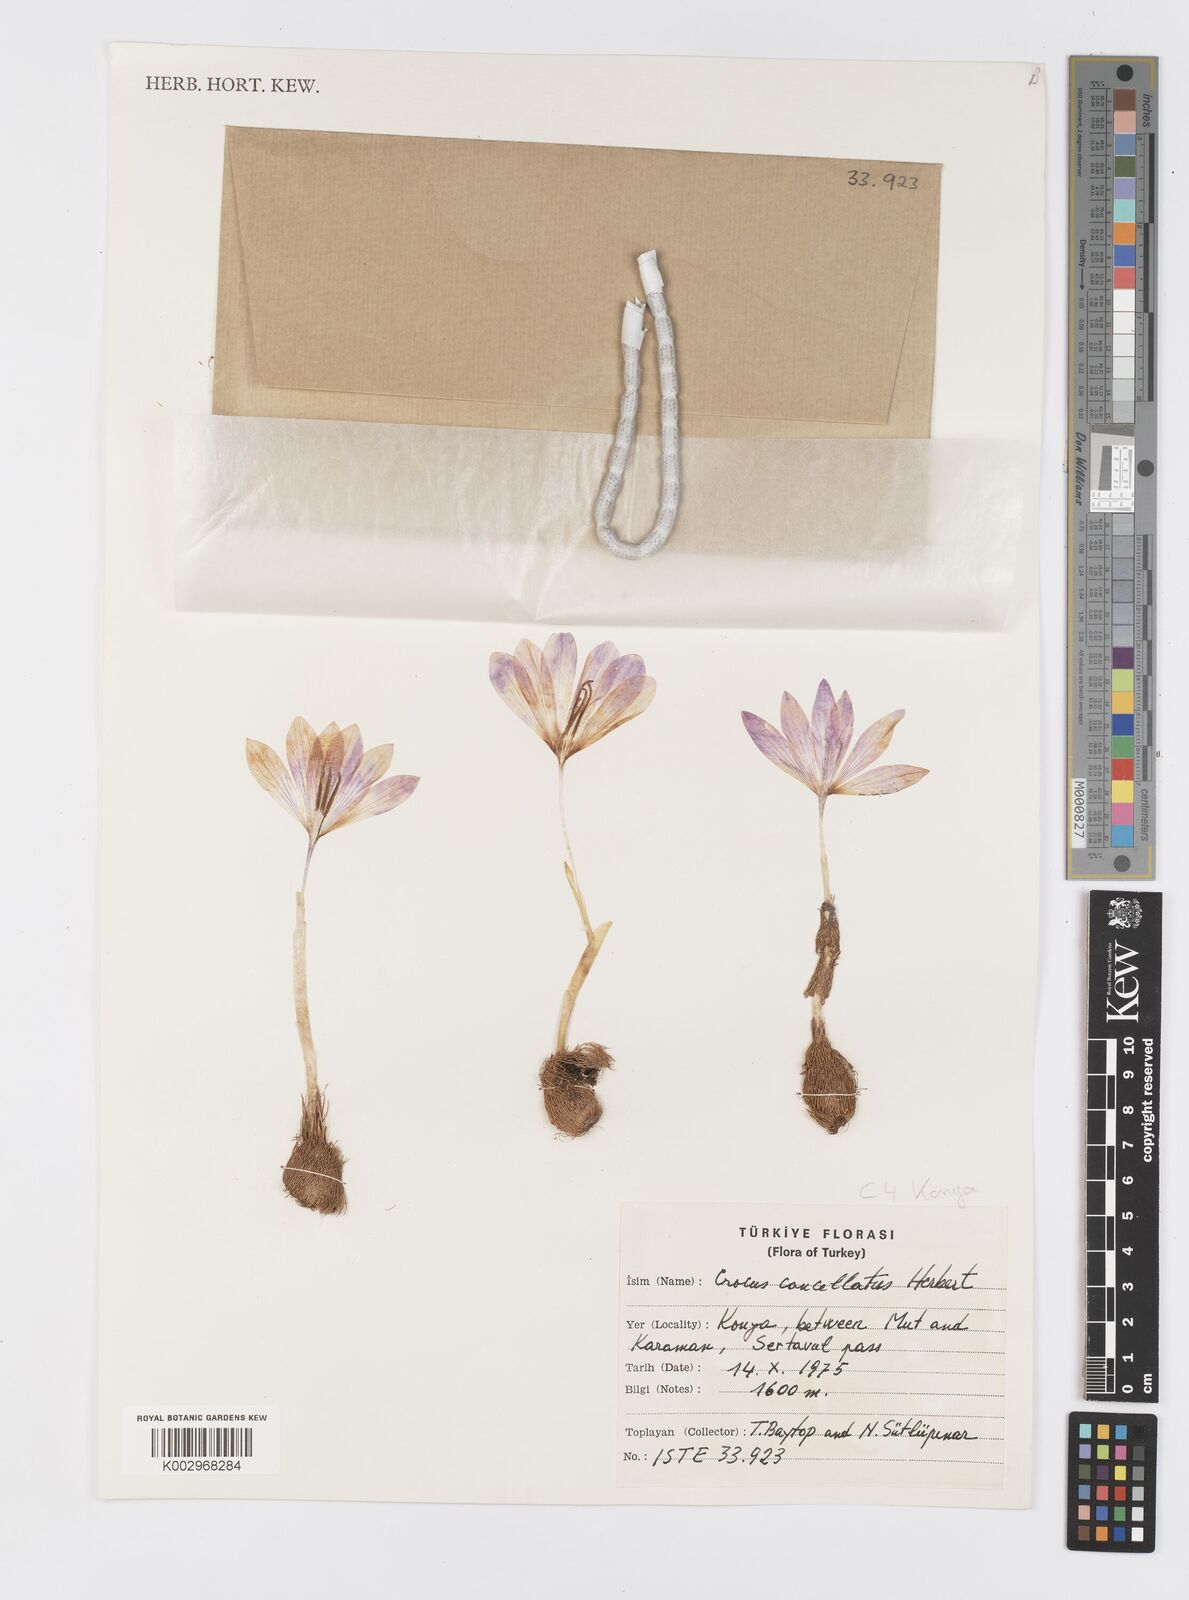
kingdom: Plantae
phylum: Tracheophyta
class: Liliopsida
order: Asparagales
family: Iridaceae
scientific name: Iridaceae
